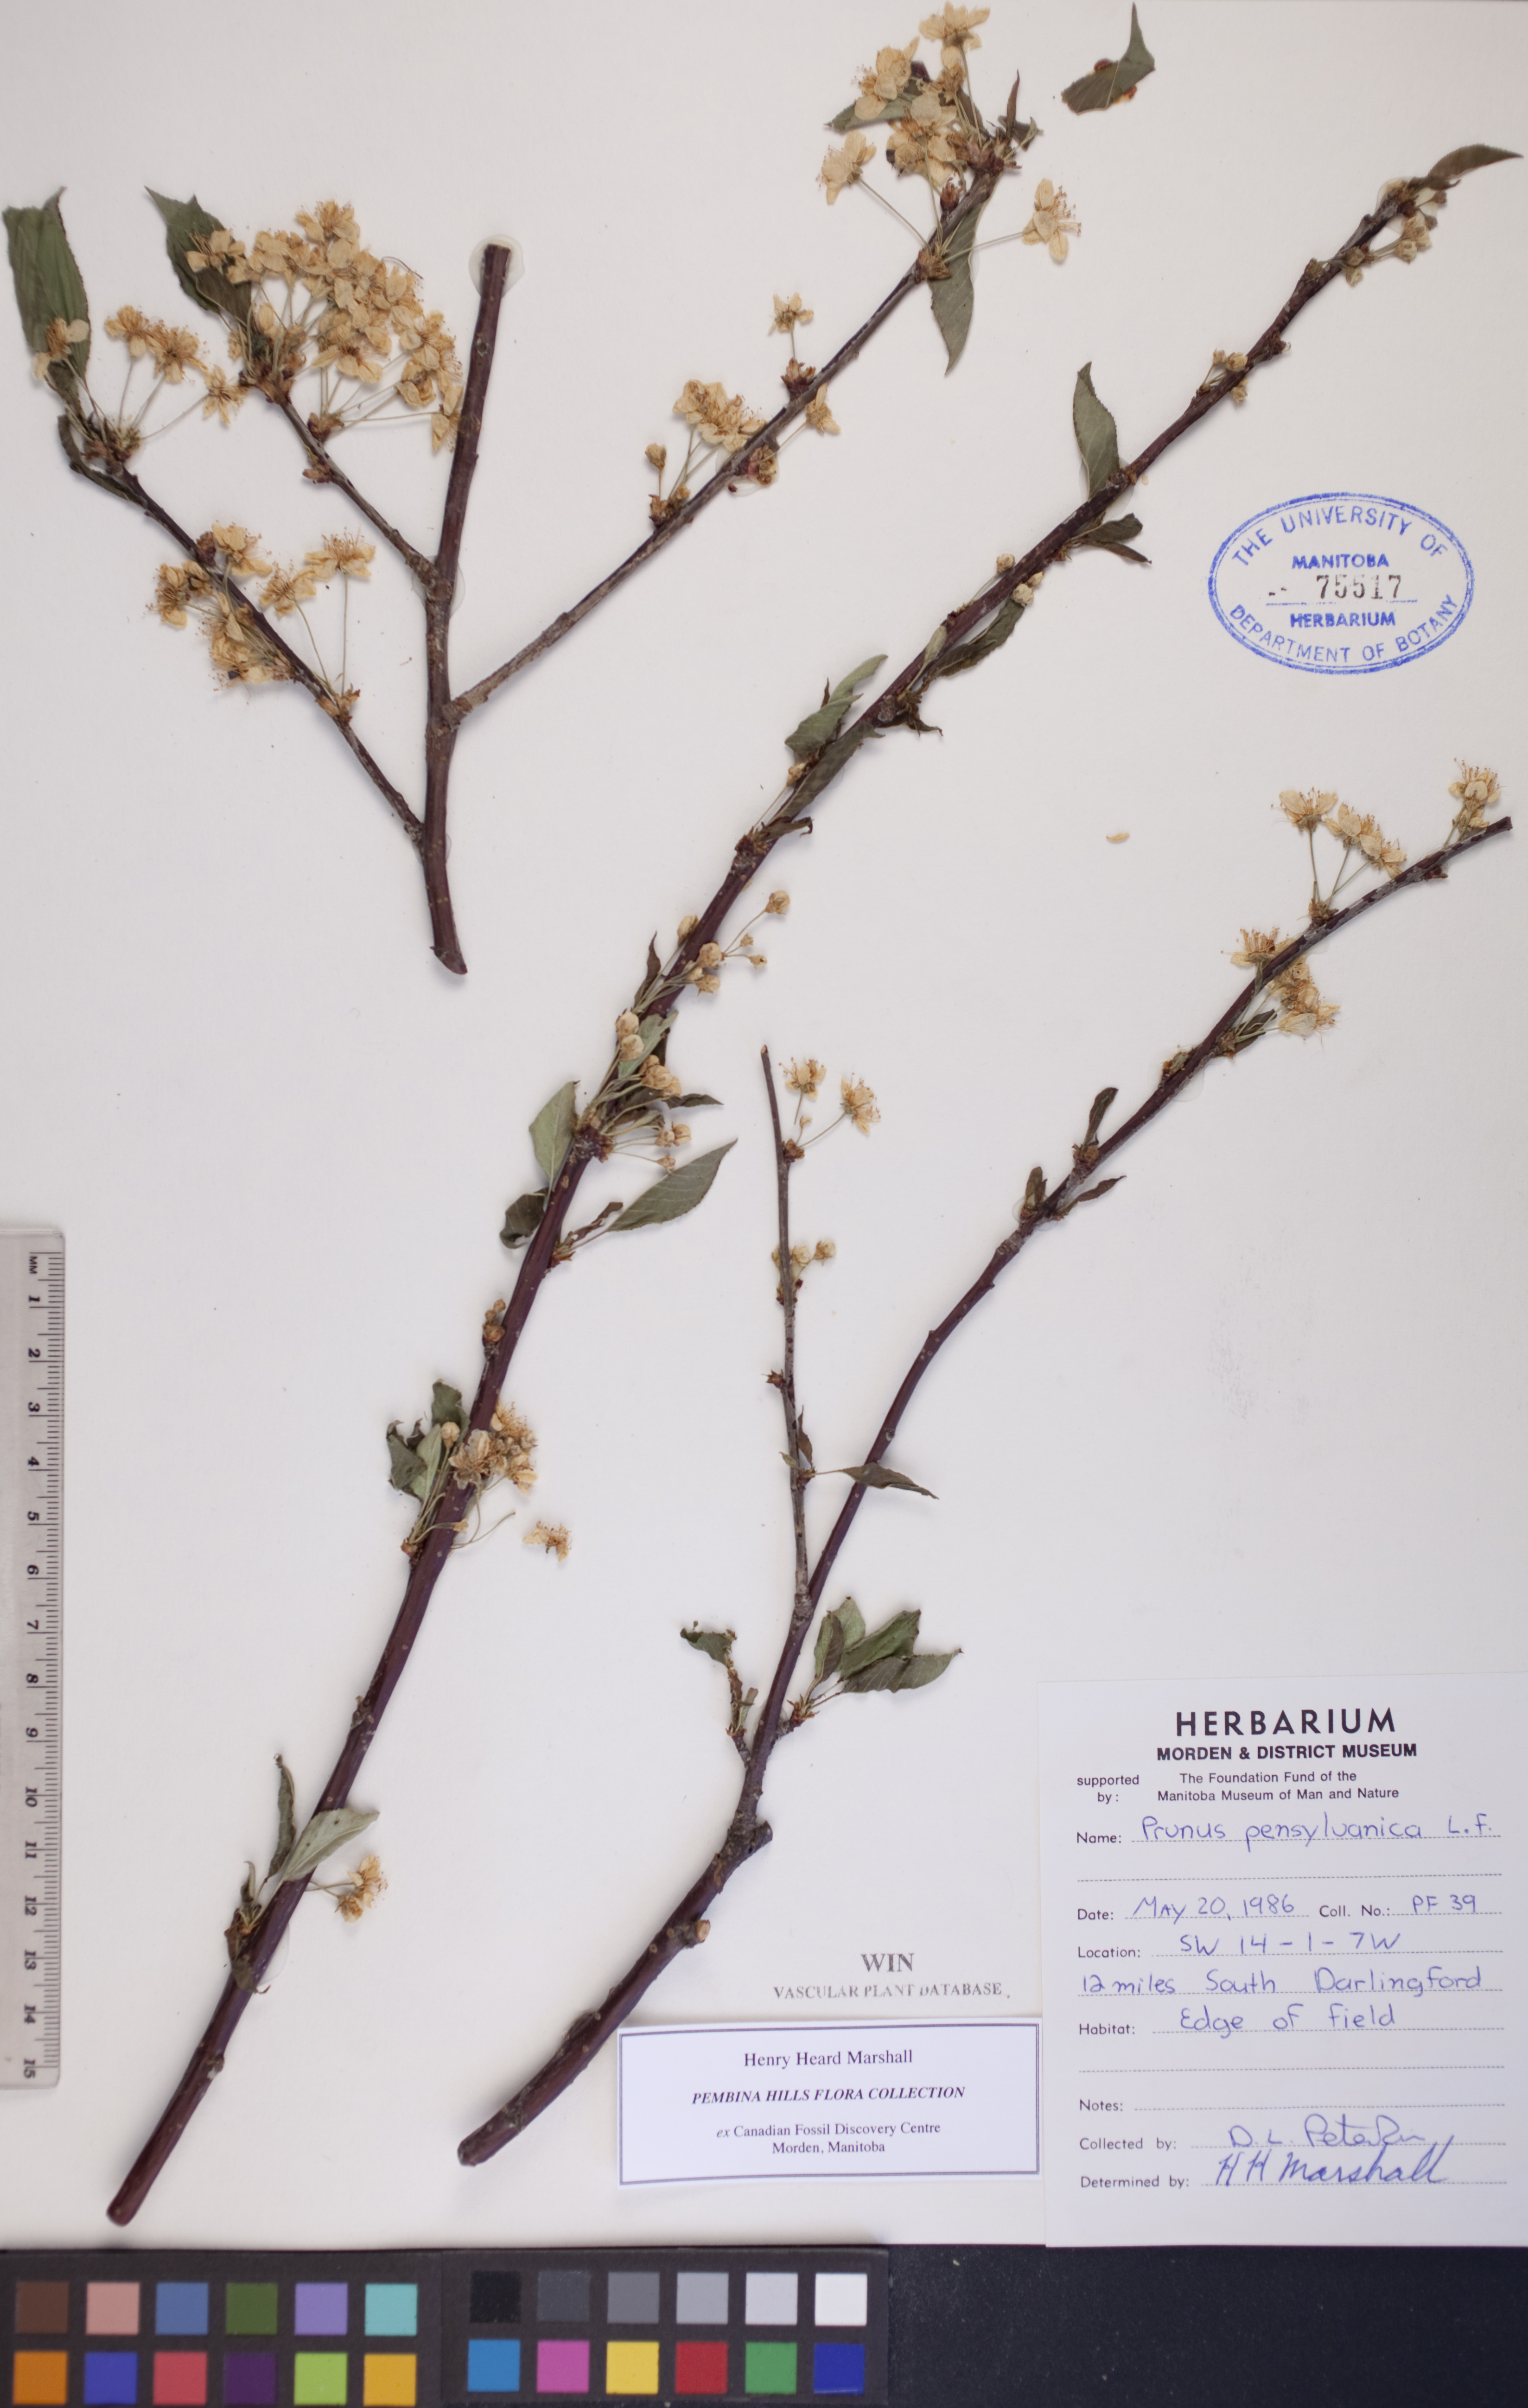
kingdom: Plantae
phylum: Tracheophyta
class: Magnoliopsida
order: Rosales
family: Rosaceae
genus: Prunus
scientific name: Prunus pensylvanica
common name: Pin cherry
